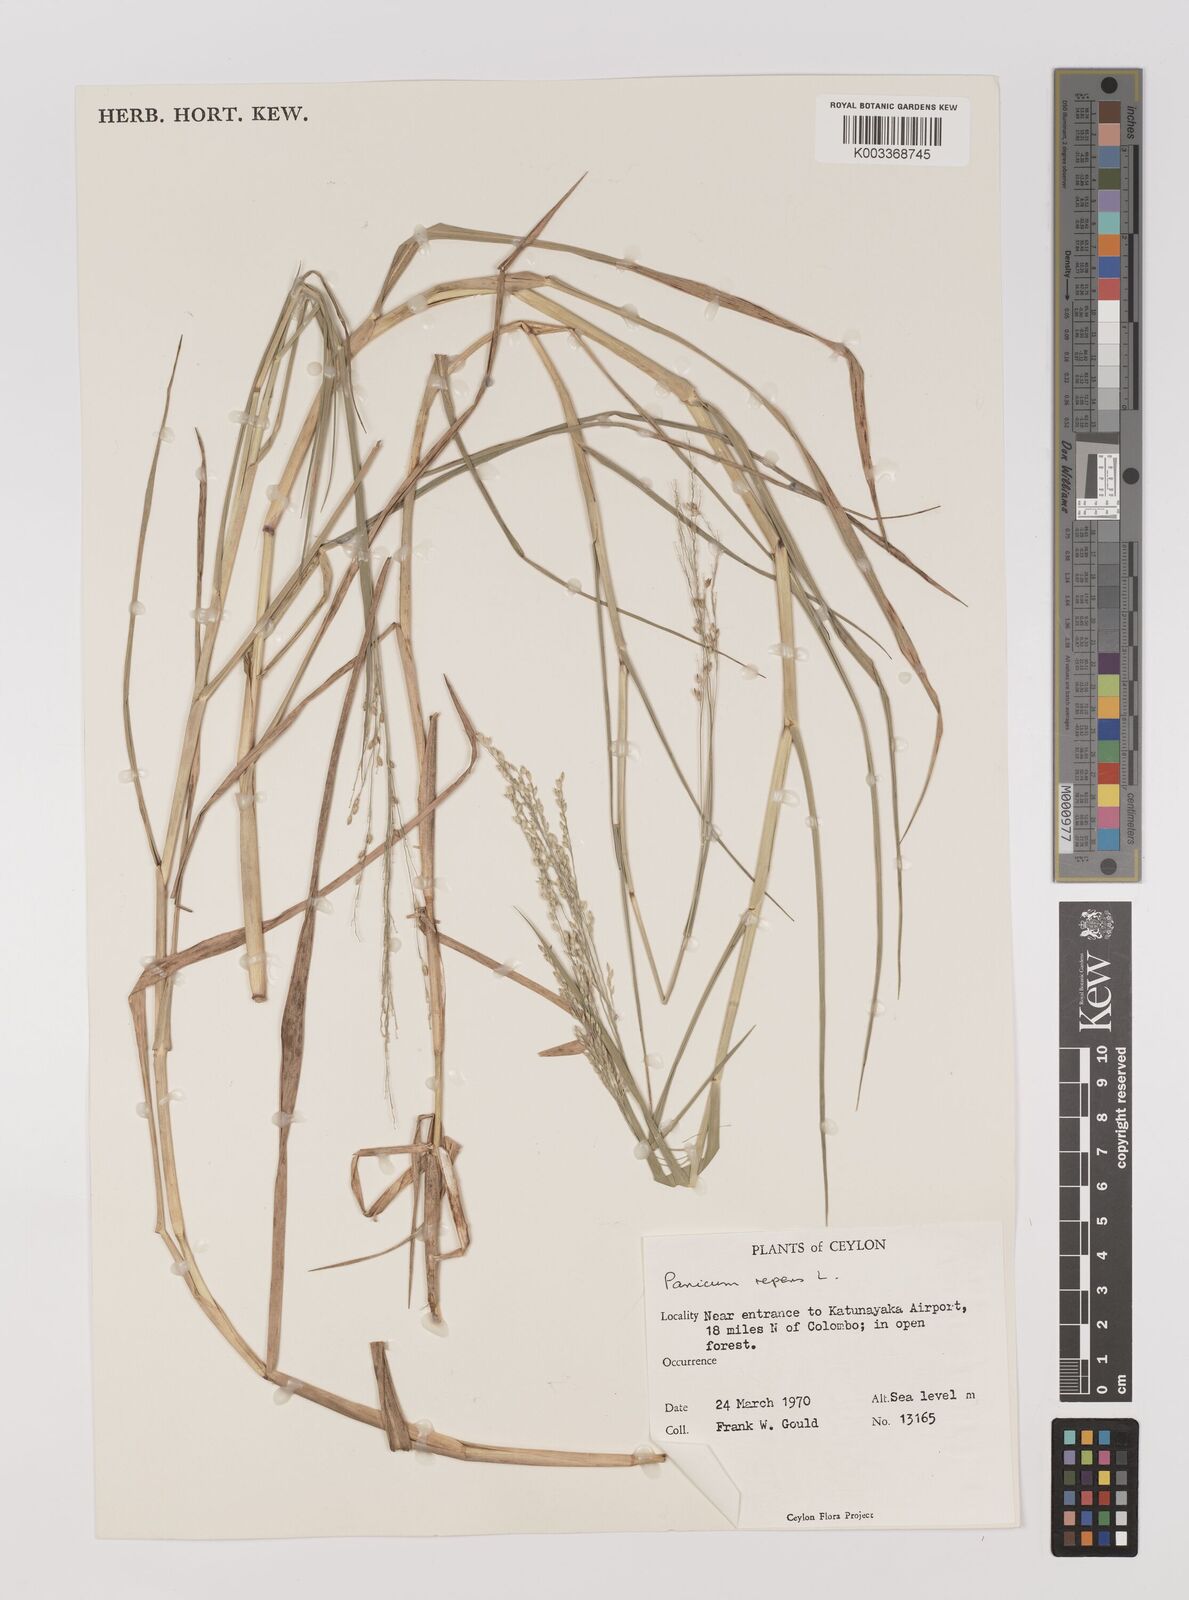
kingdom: Plantae
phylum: Tracheophyta
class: Liliopsida
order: Poales
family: Poaceae
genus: Panicum
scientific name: Panicum repens
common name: Torpedo grass
